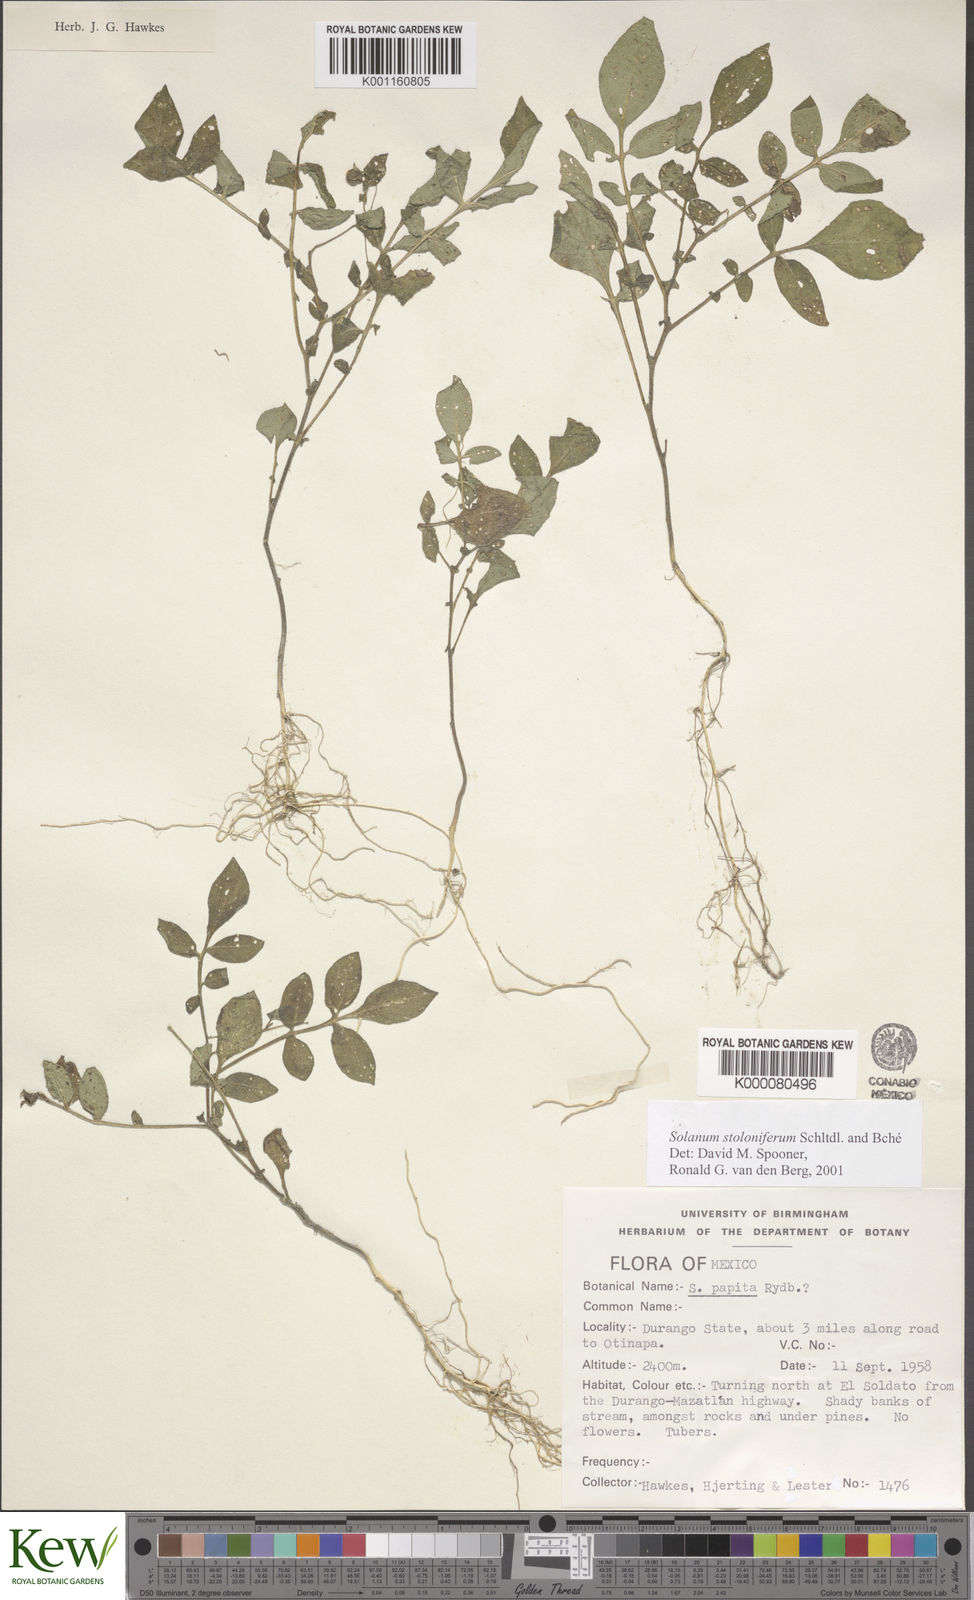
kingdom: Plantae
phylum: Tracheophyta
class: Magnoliopsida
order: Solanales
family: Solanaceae
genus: Solanum
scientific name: Solanum stoloniferum
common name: Fendler's nighshade
